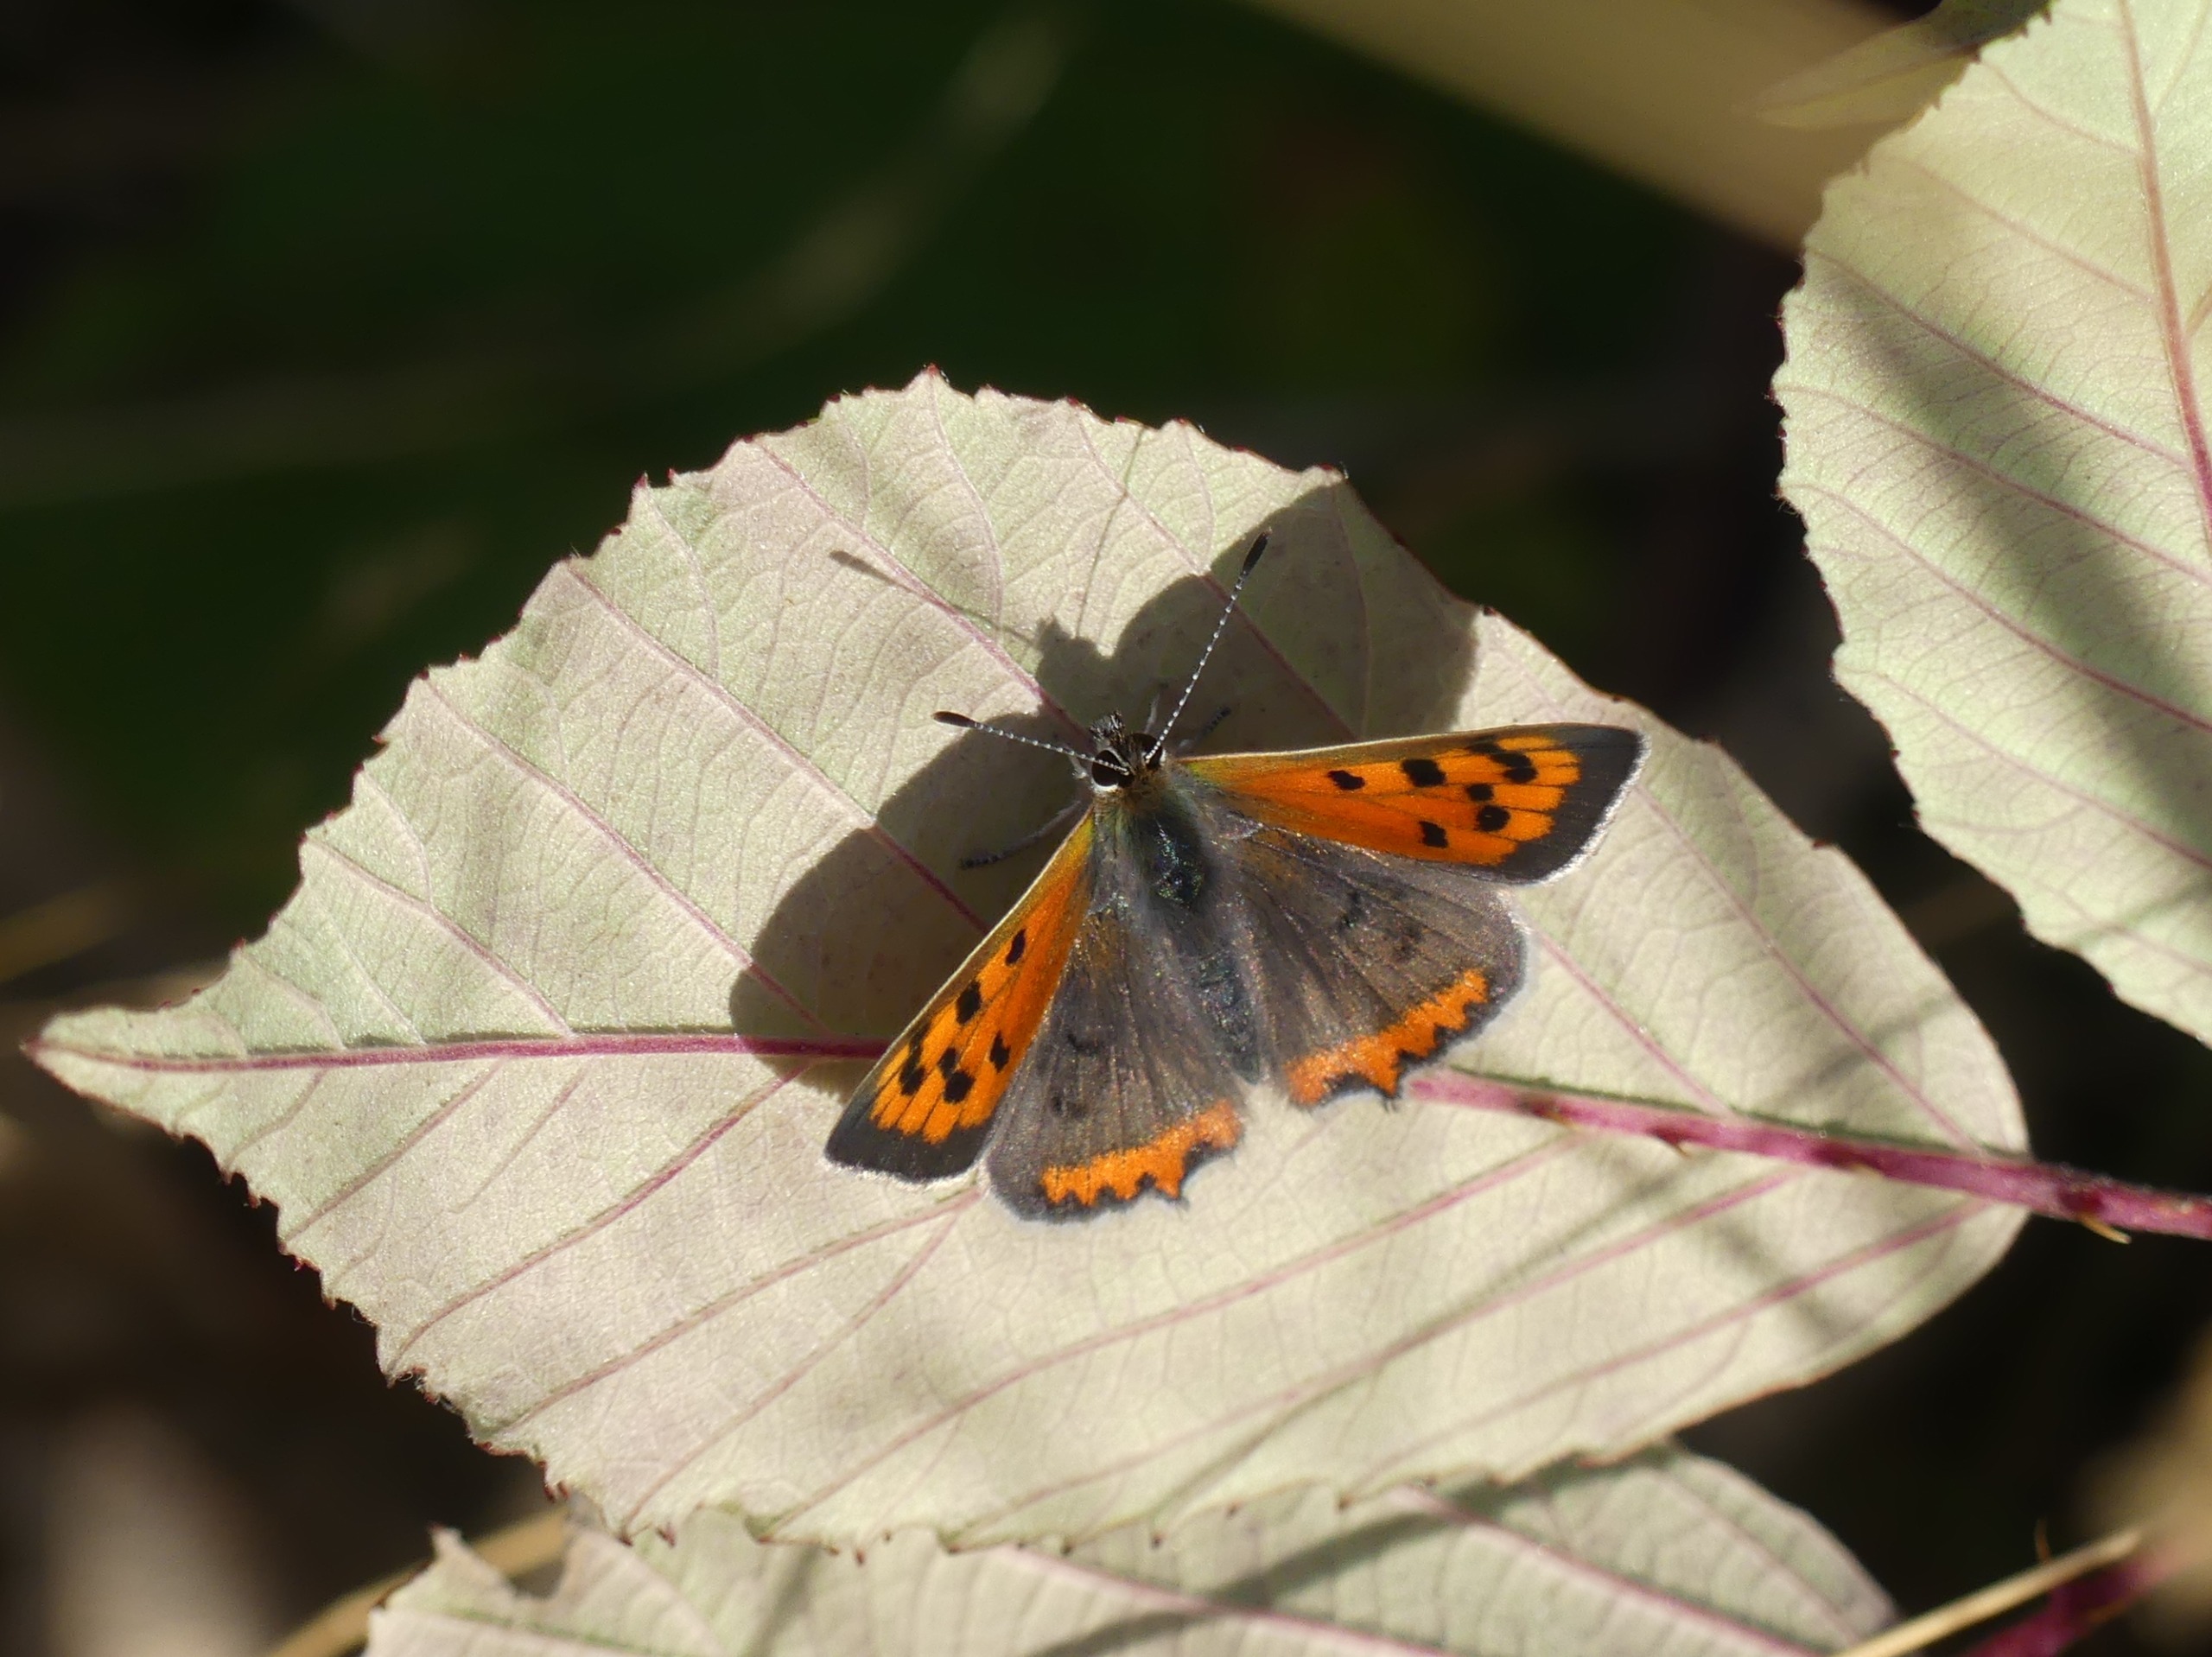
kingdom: Animalia
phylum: Arthropoda
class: Insecta
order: Lepidoptera
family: Lycaenidae
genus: Lycaena
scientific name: Lycaena phlaeas
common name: Lille ildfugl
